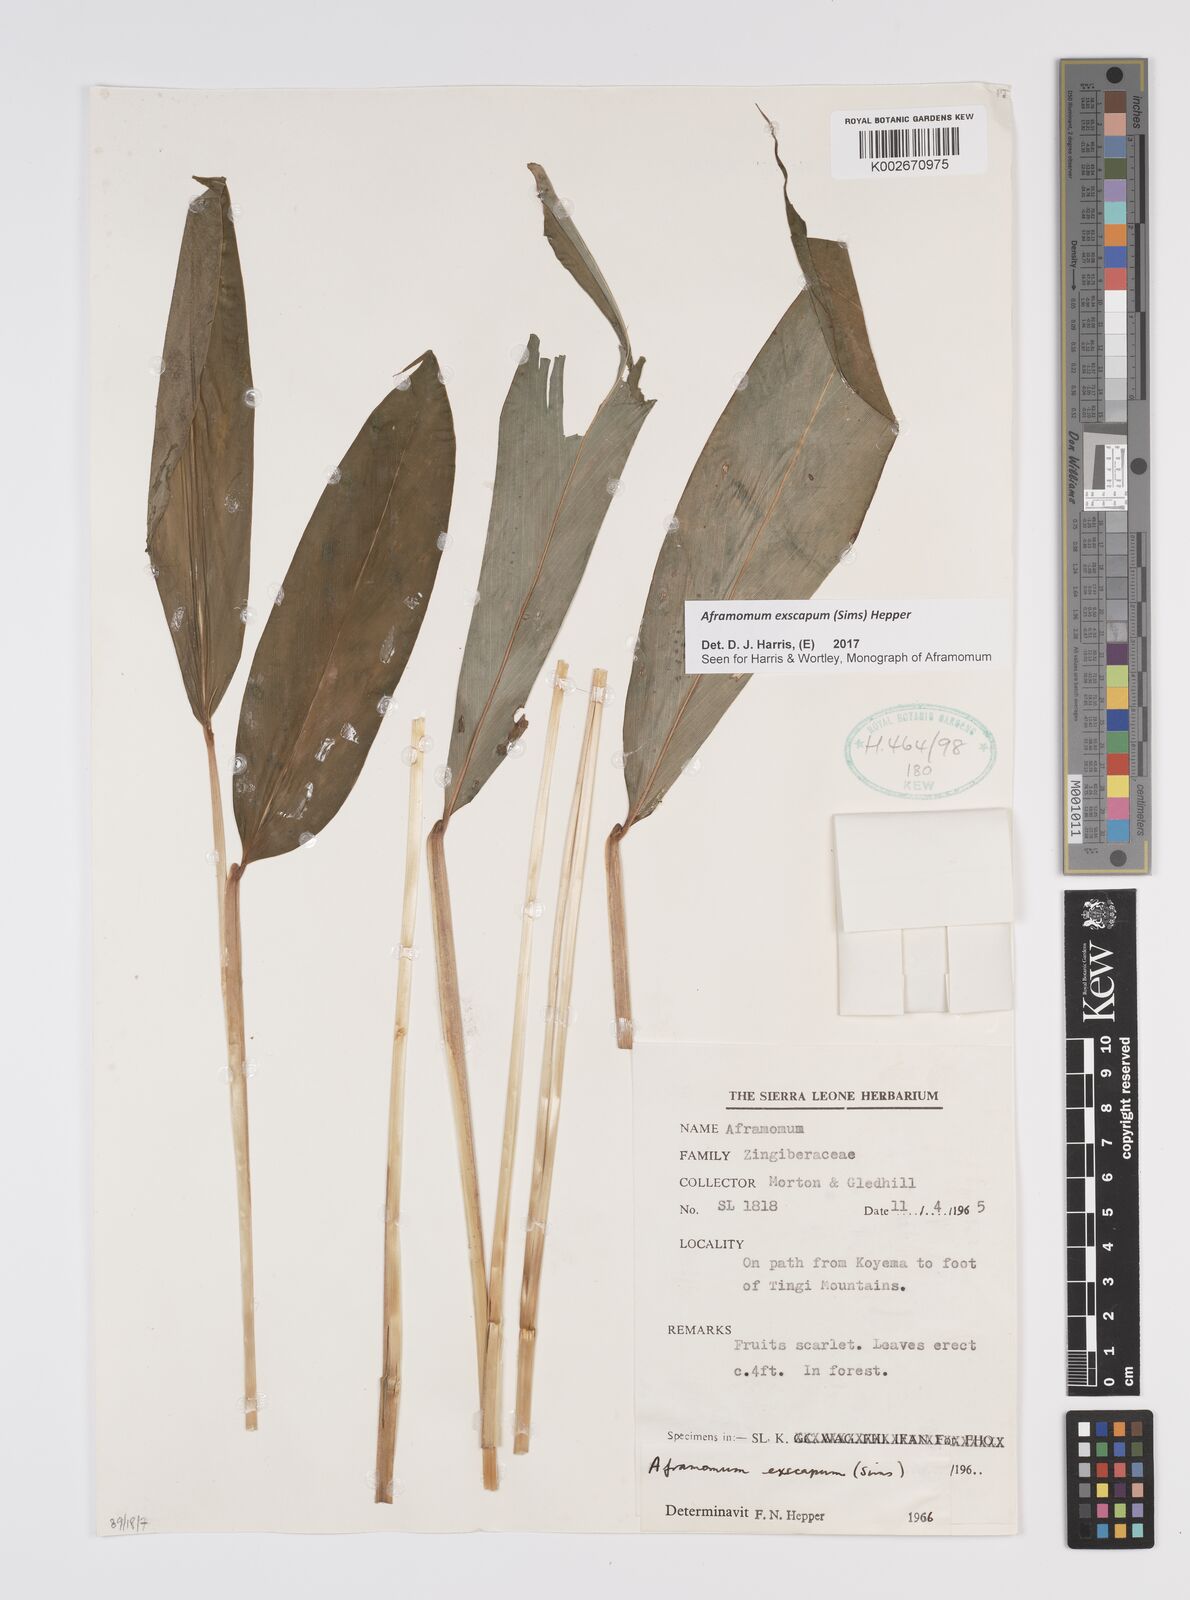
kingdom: Plantae
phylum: Tracheophyta
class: Liliopsida
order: Zingiberales
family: Zingiberaceae
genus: Aframomum
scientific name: Aframomum exscapum
